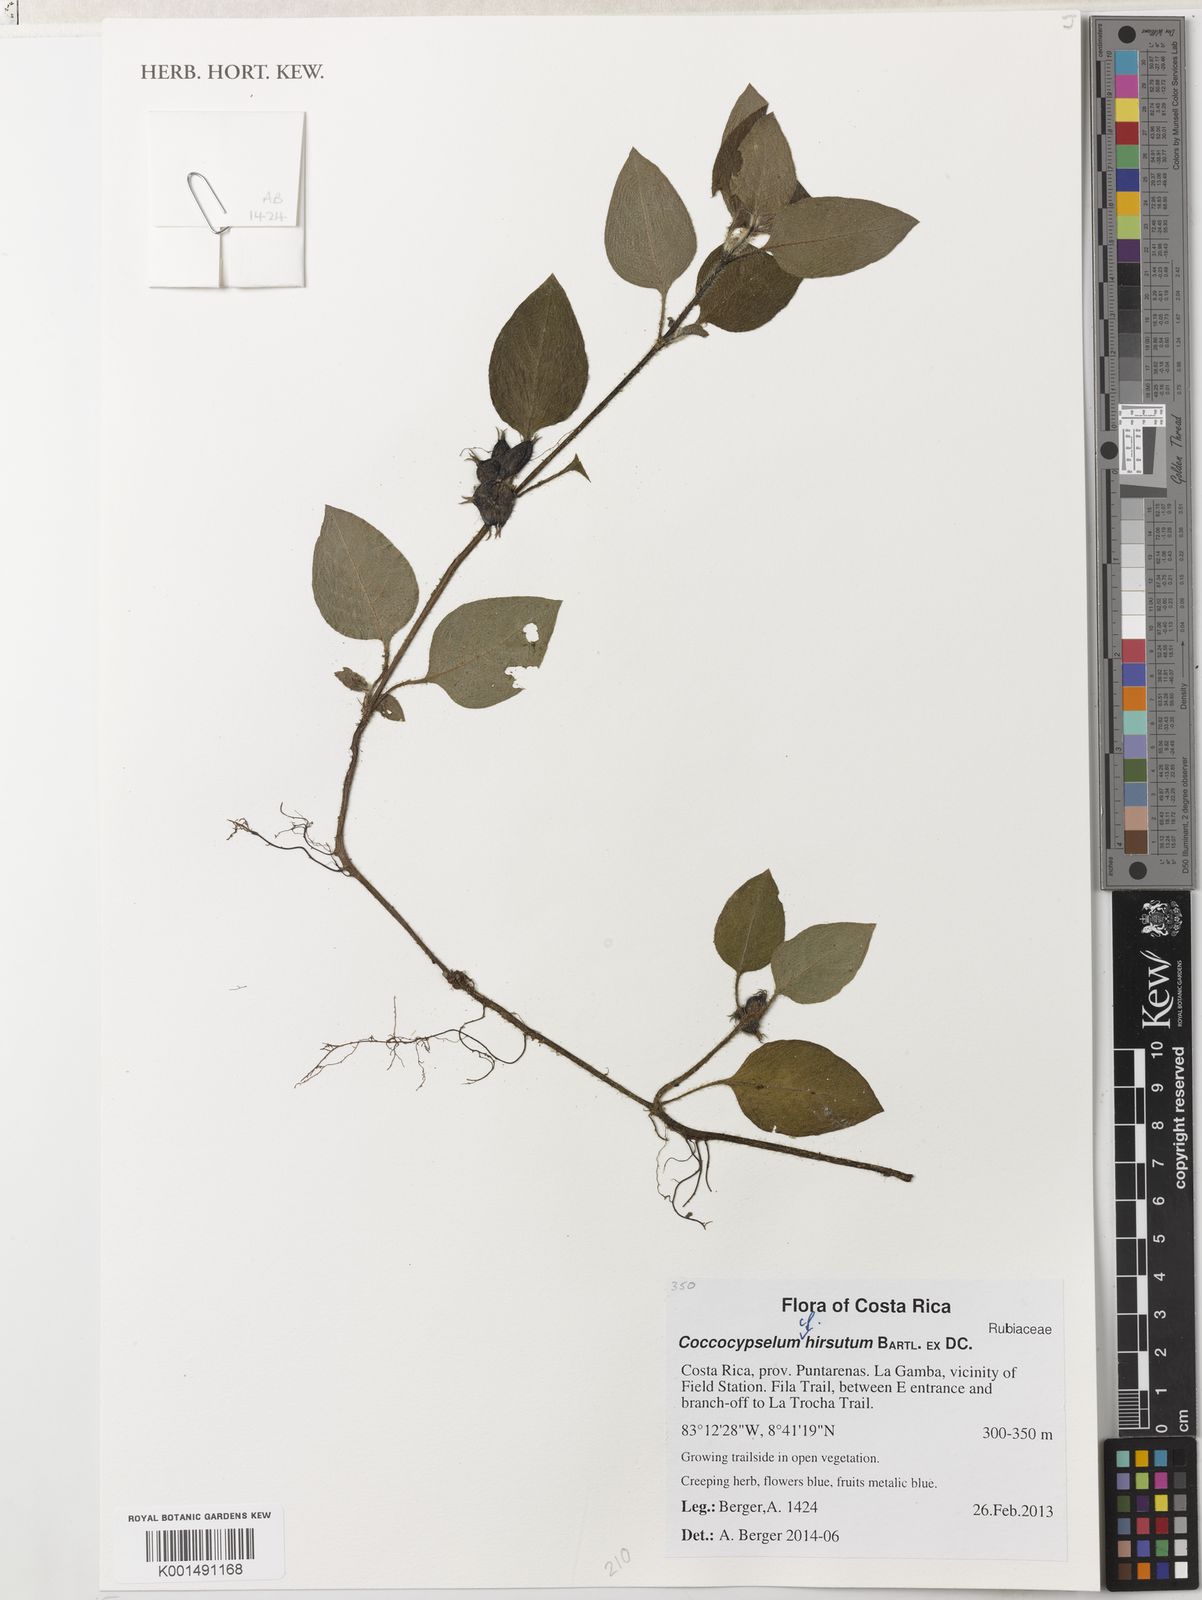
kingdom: Plantae
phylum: Tracheophyta
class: Magnoliopsida
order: Gentianales
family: Rubiaceae
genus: Coccocypselum
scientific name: Coccocypselum guianense
